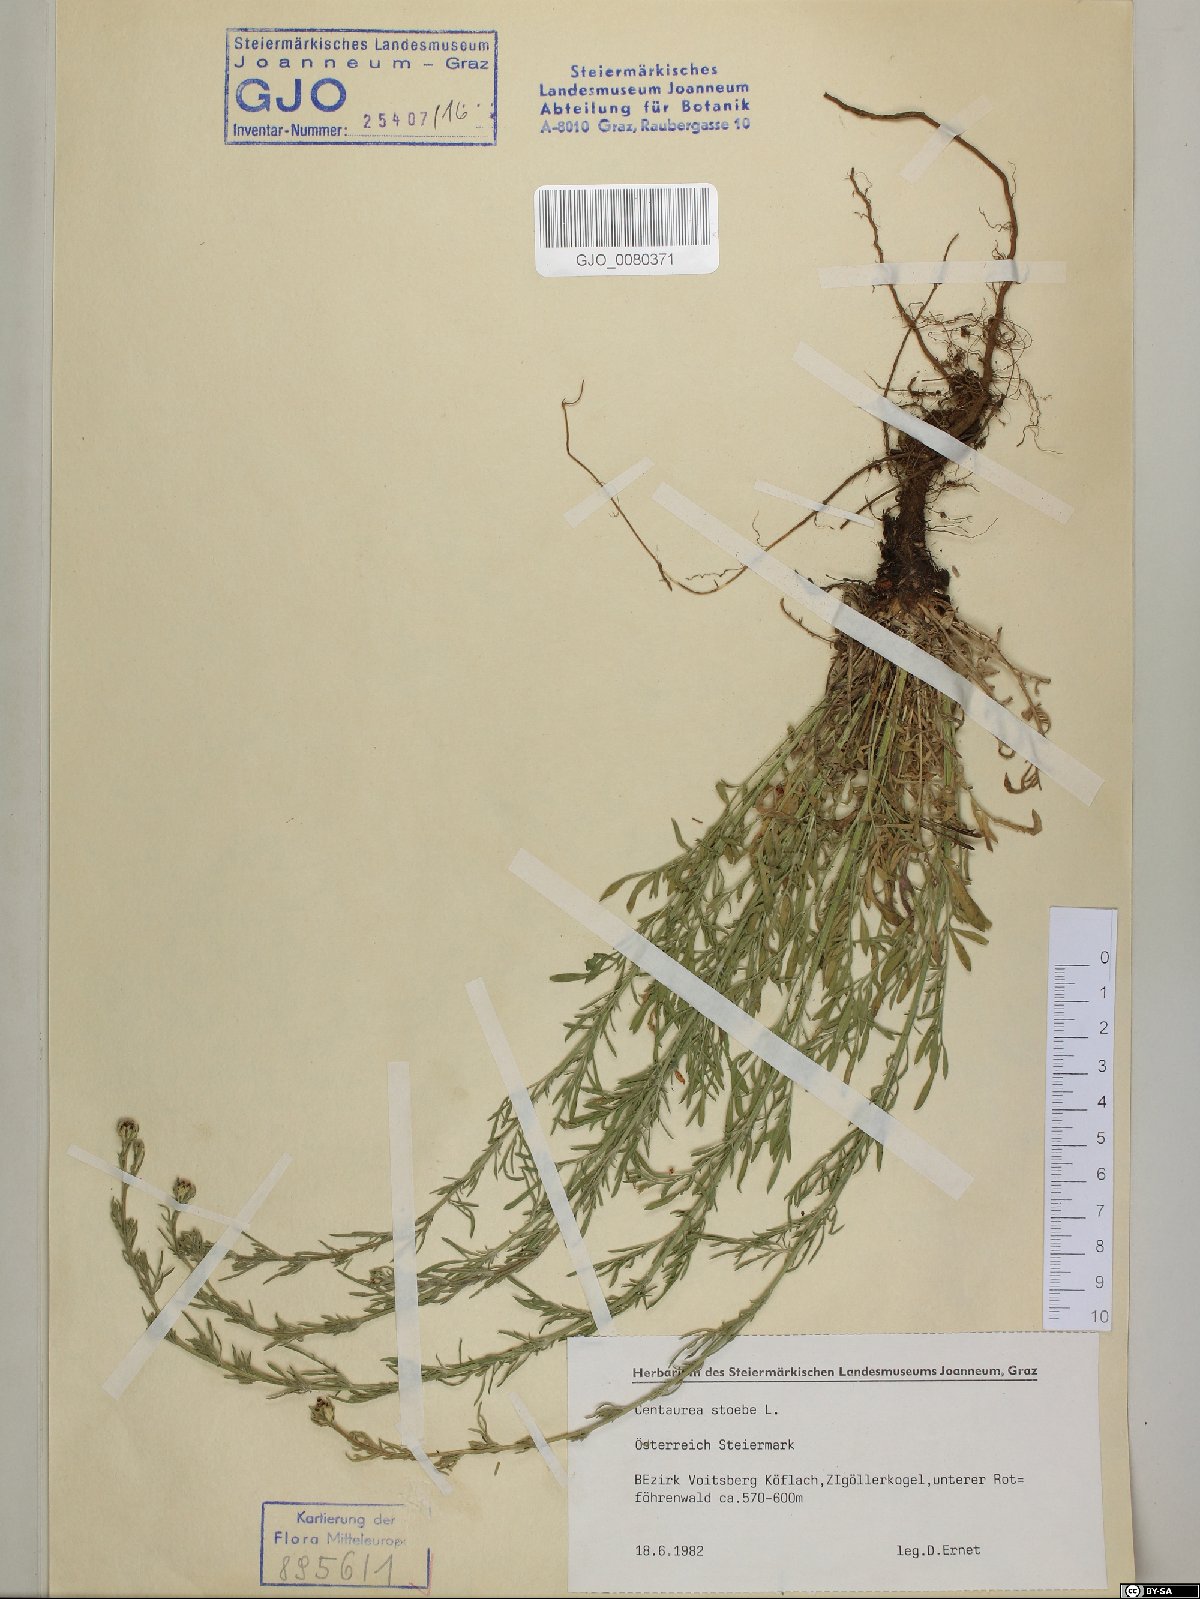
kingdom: Plantae
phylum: Tracheophyta
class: Magnoliopsida
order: Asterales
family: Asteraceae
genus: Centaurea
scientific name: Centaurea stoebe
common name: Spotted knapweed
